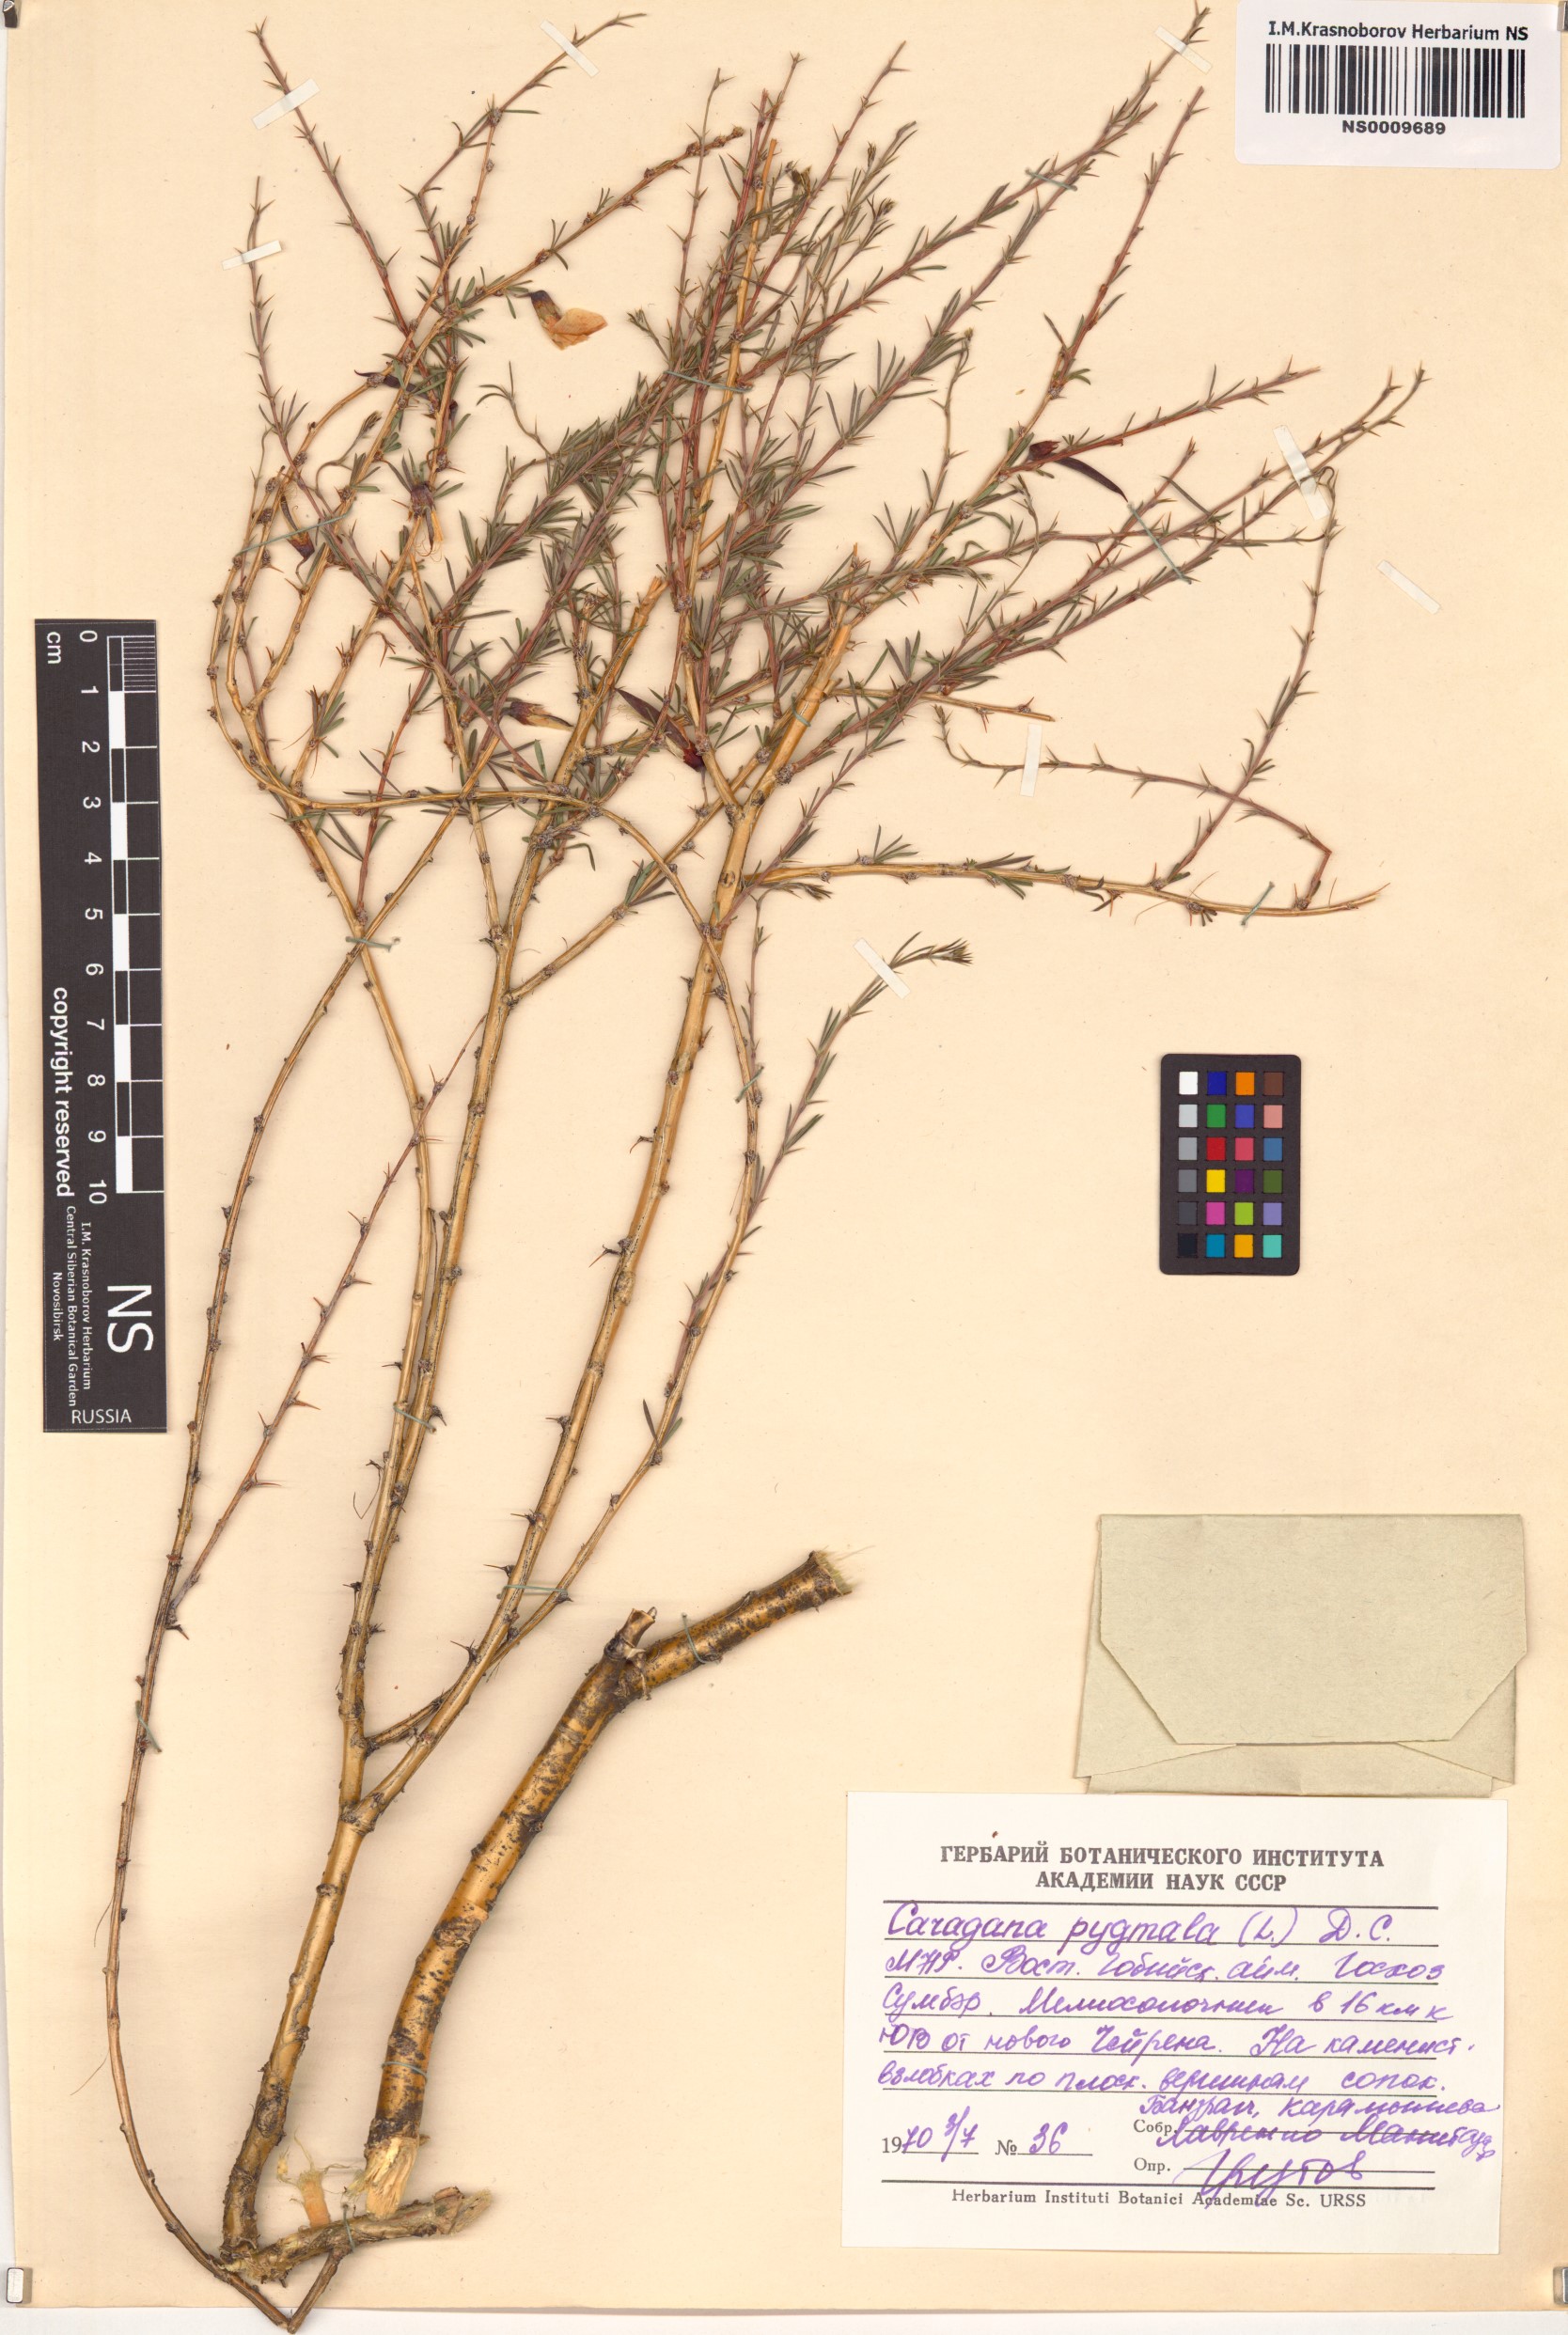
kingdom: Plantae
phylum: Tracheophyta
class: Magnoliopsida
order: Fabales
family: Fabaceae
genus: Caragana
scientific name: Caragana pygmaea
